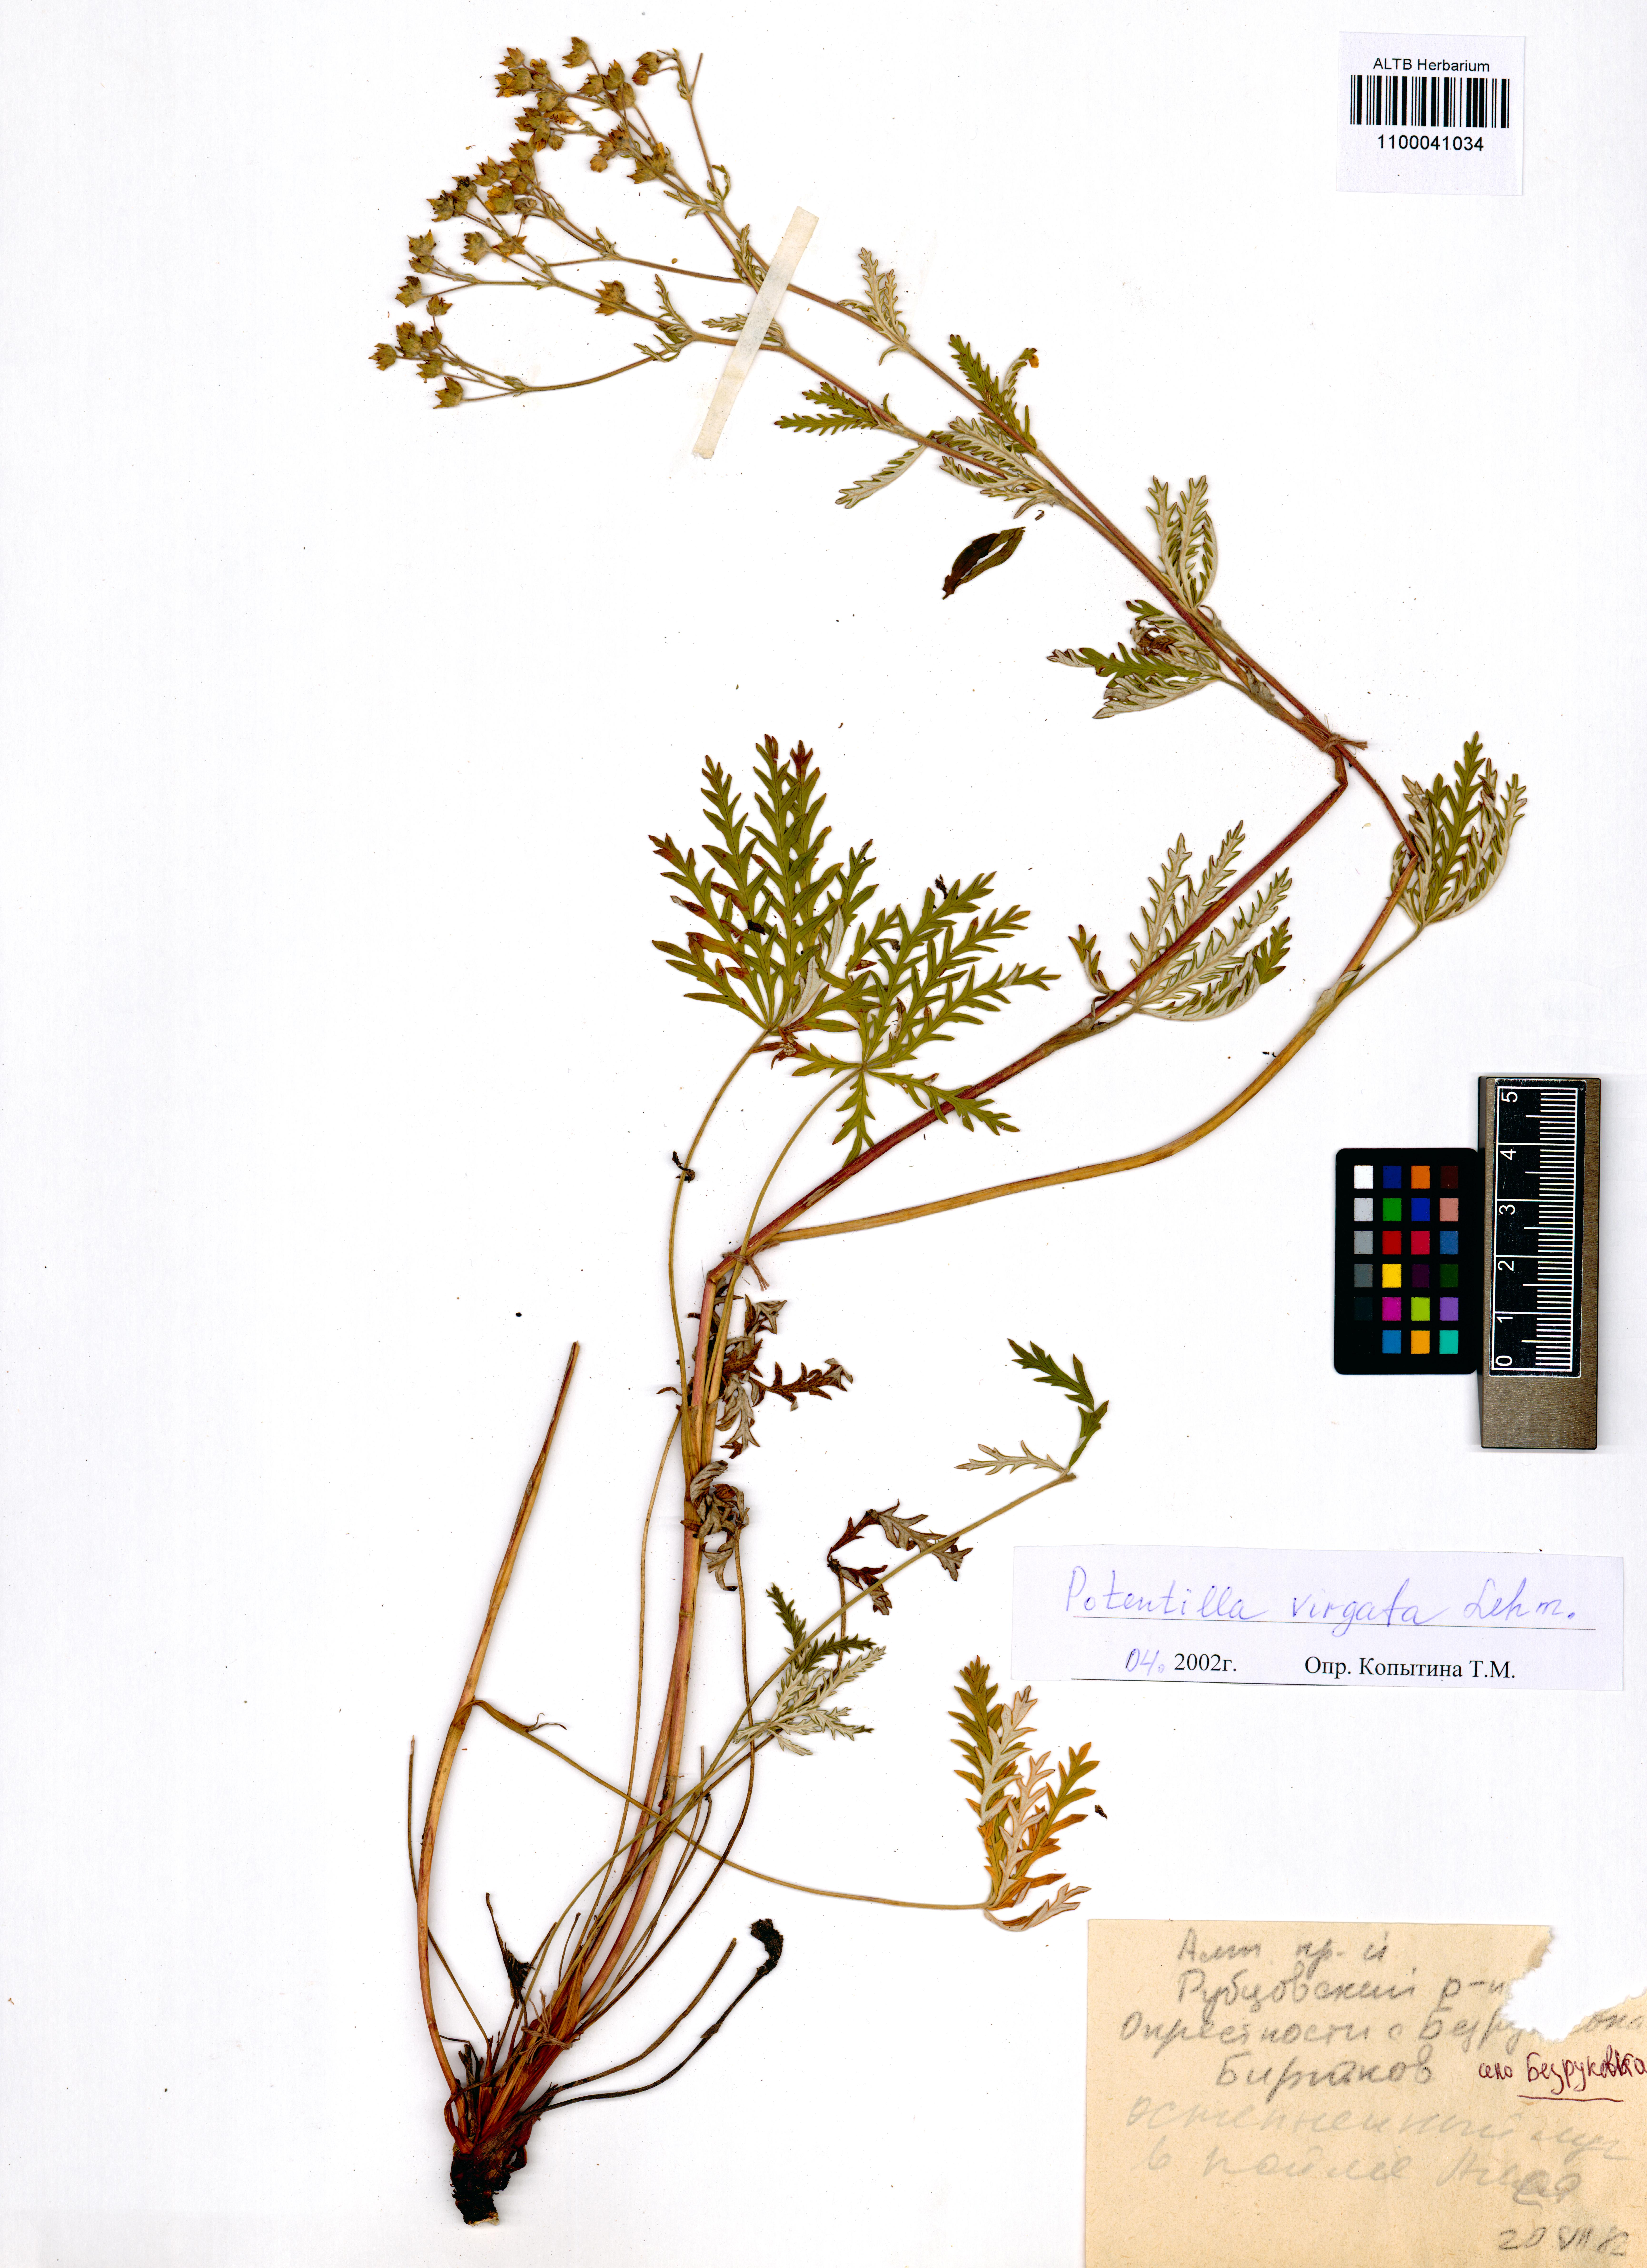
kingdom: Plantae
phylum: Tracheophyta
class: Magnoliopsida
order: Rosales
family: Rosaceae
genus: Potentilla
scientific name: Potentilla virgata
